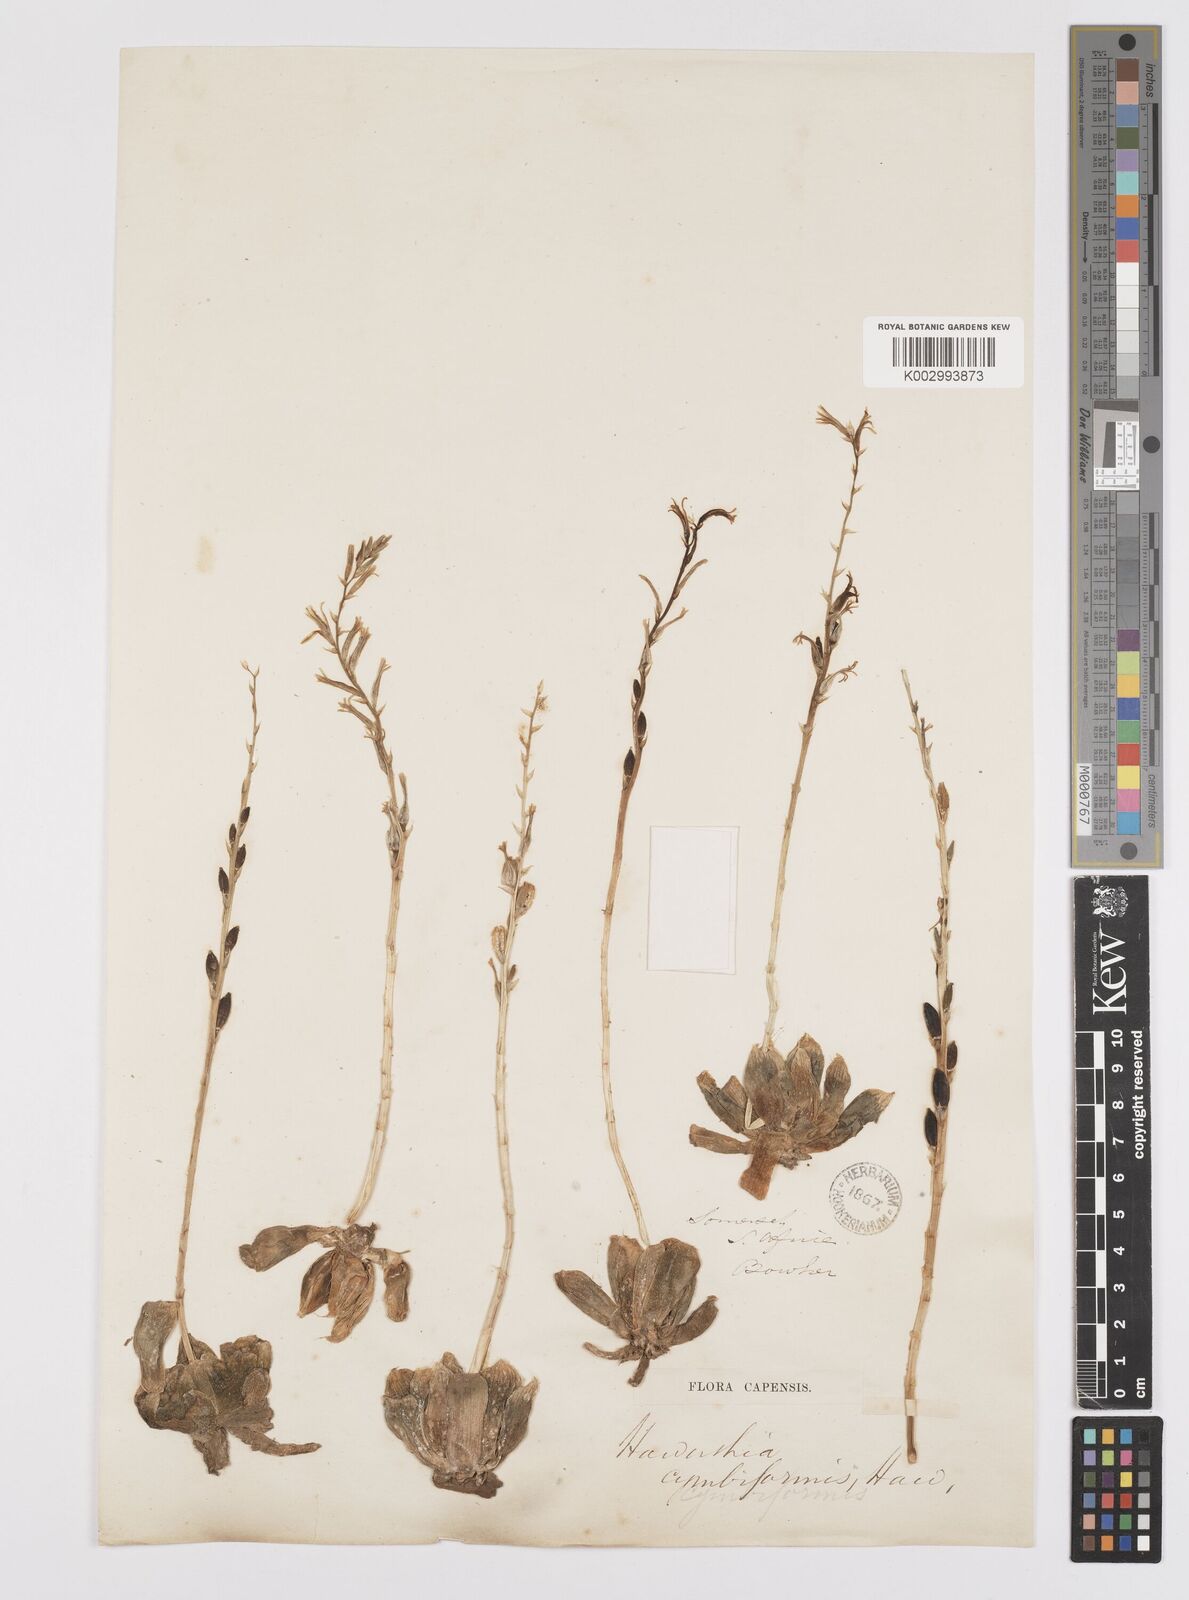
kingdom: Plantae
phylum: Tracheophyta
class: Liliopsida
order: Asparagales
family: Asphodelaceae
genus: Haworthia
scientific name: Haworthia cymbiformis
